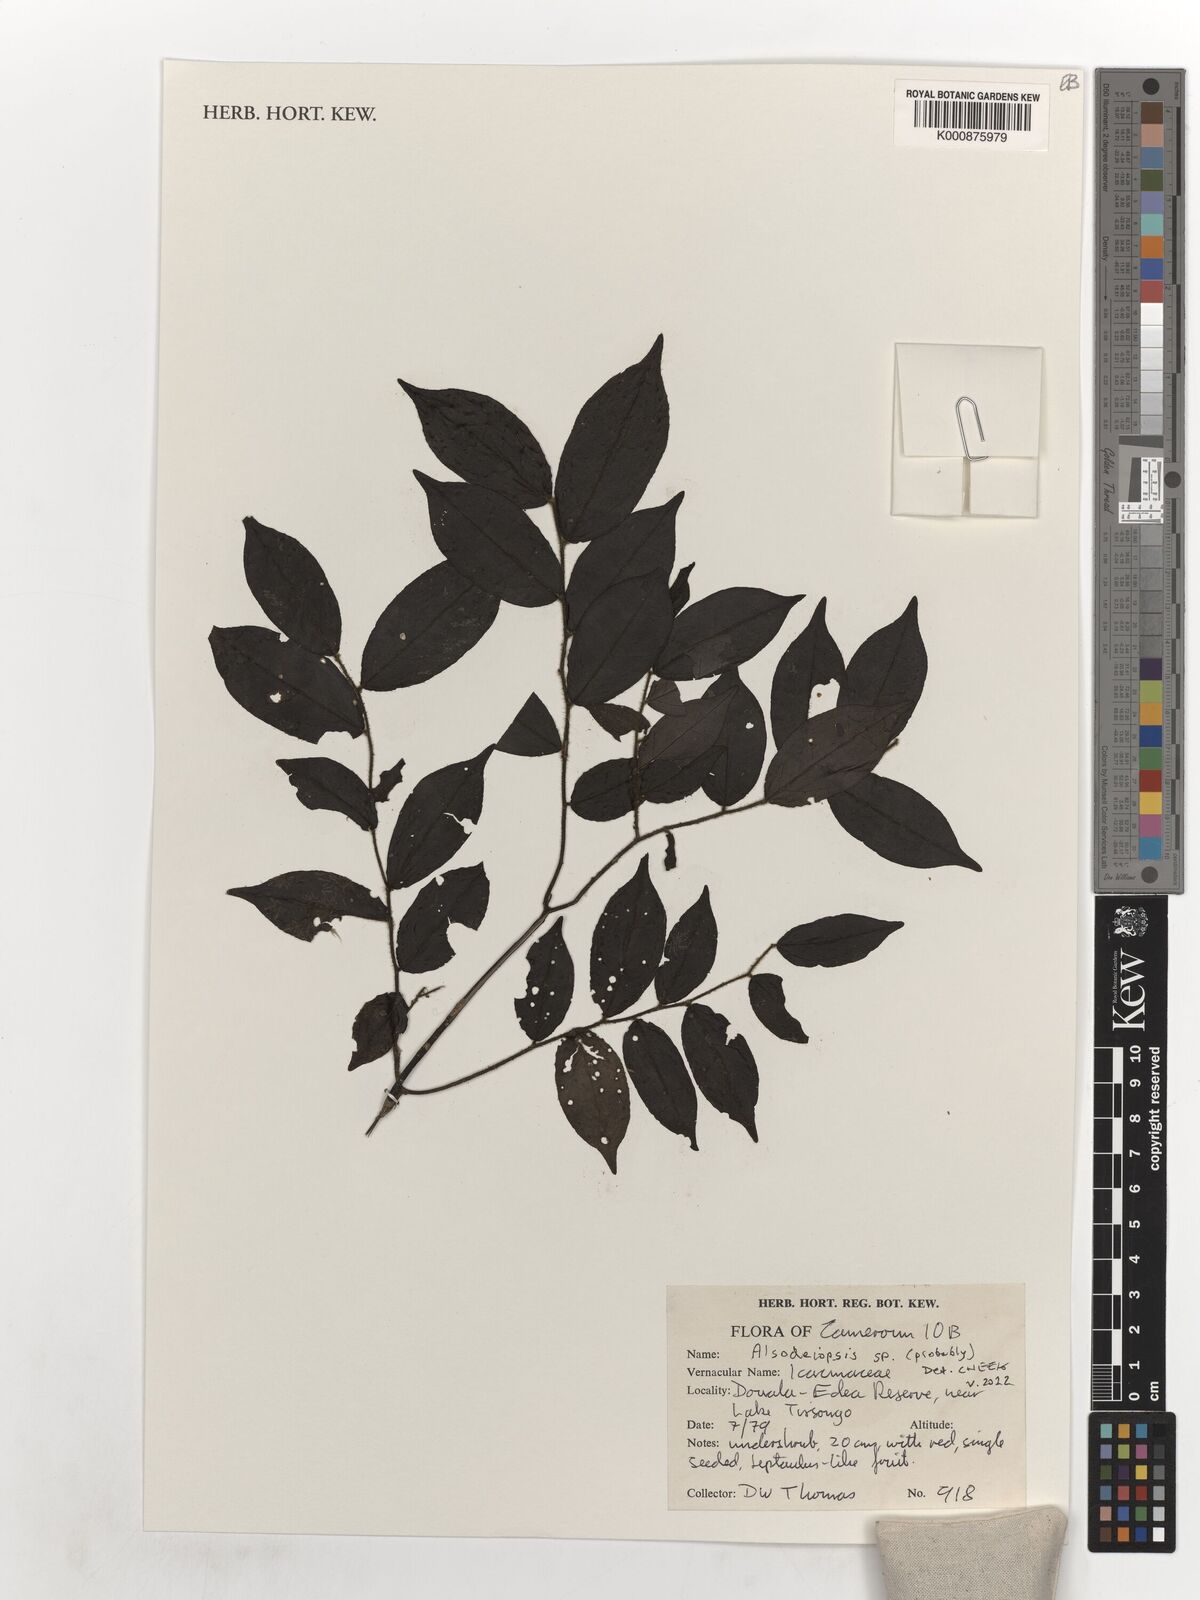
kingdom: Plantae
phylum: Tracheophyta
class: Magnoliopsida
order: Icacinales
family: Icacinaceae
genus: Alsodeiopsis
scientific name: Alsodeiopsis
